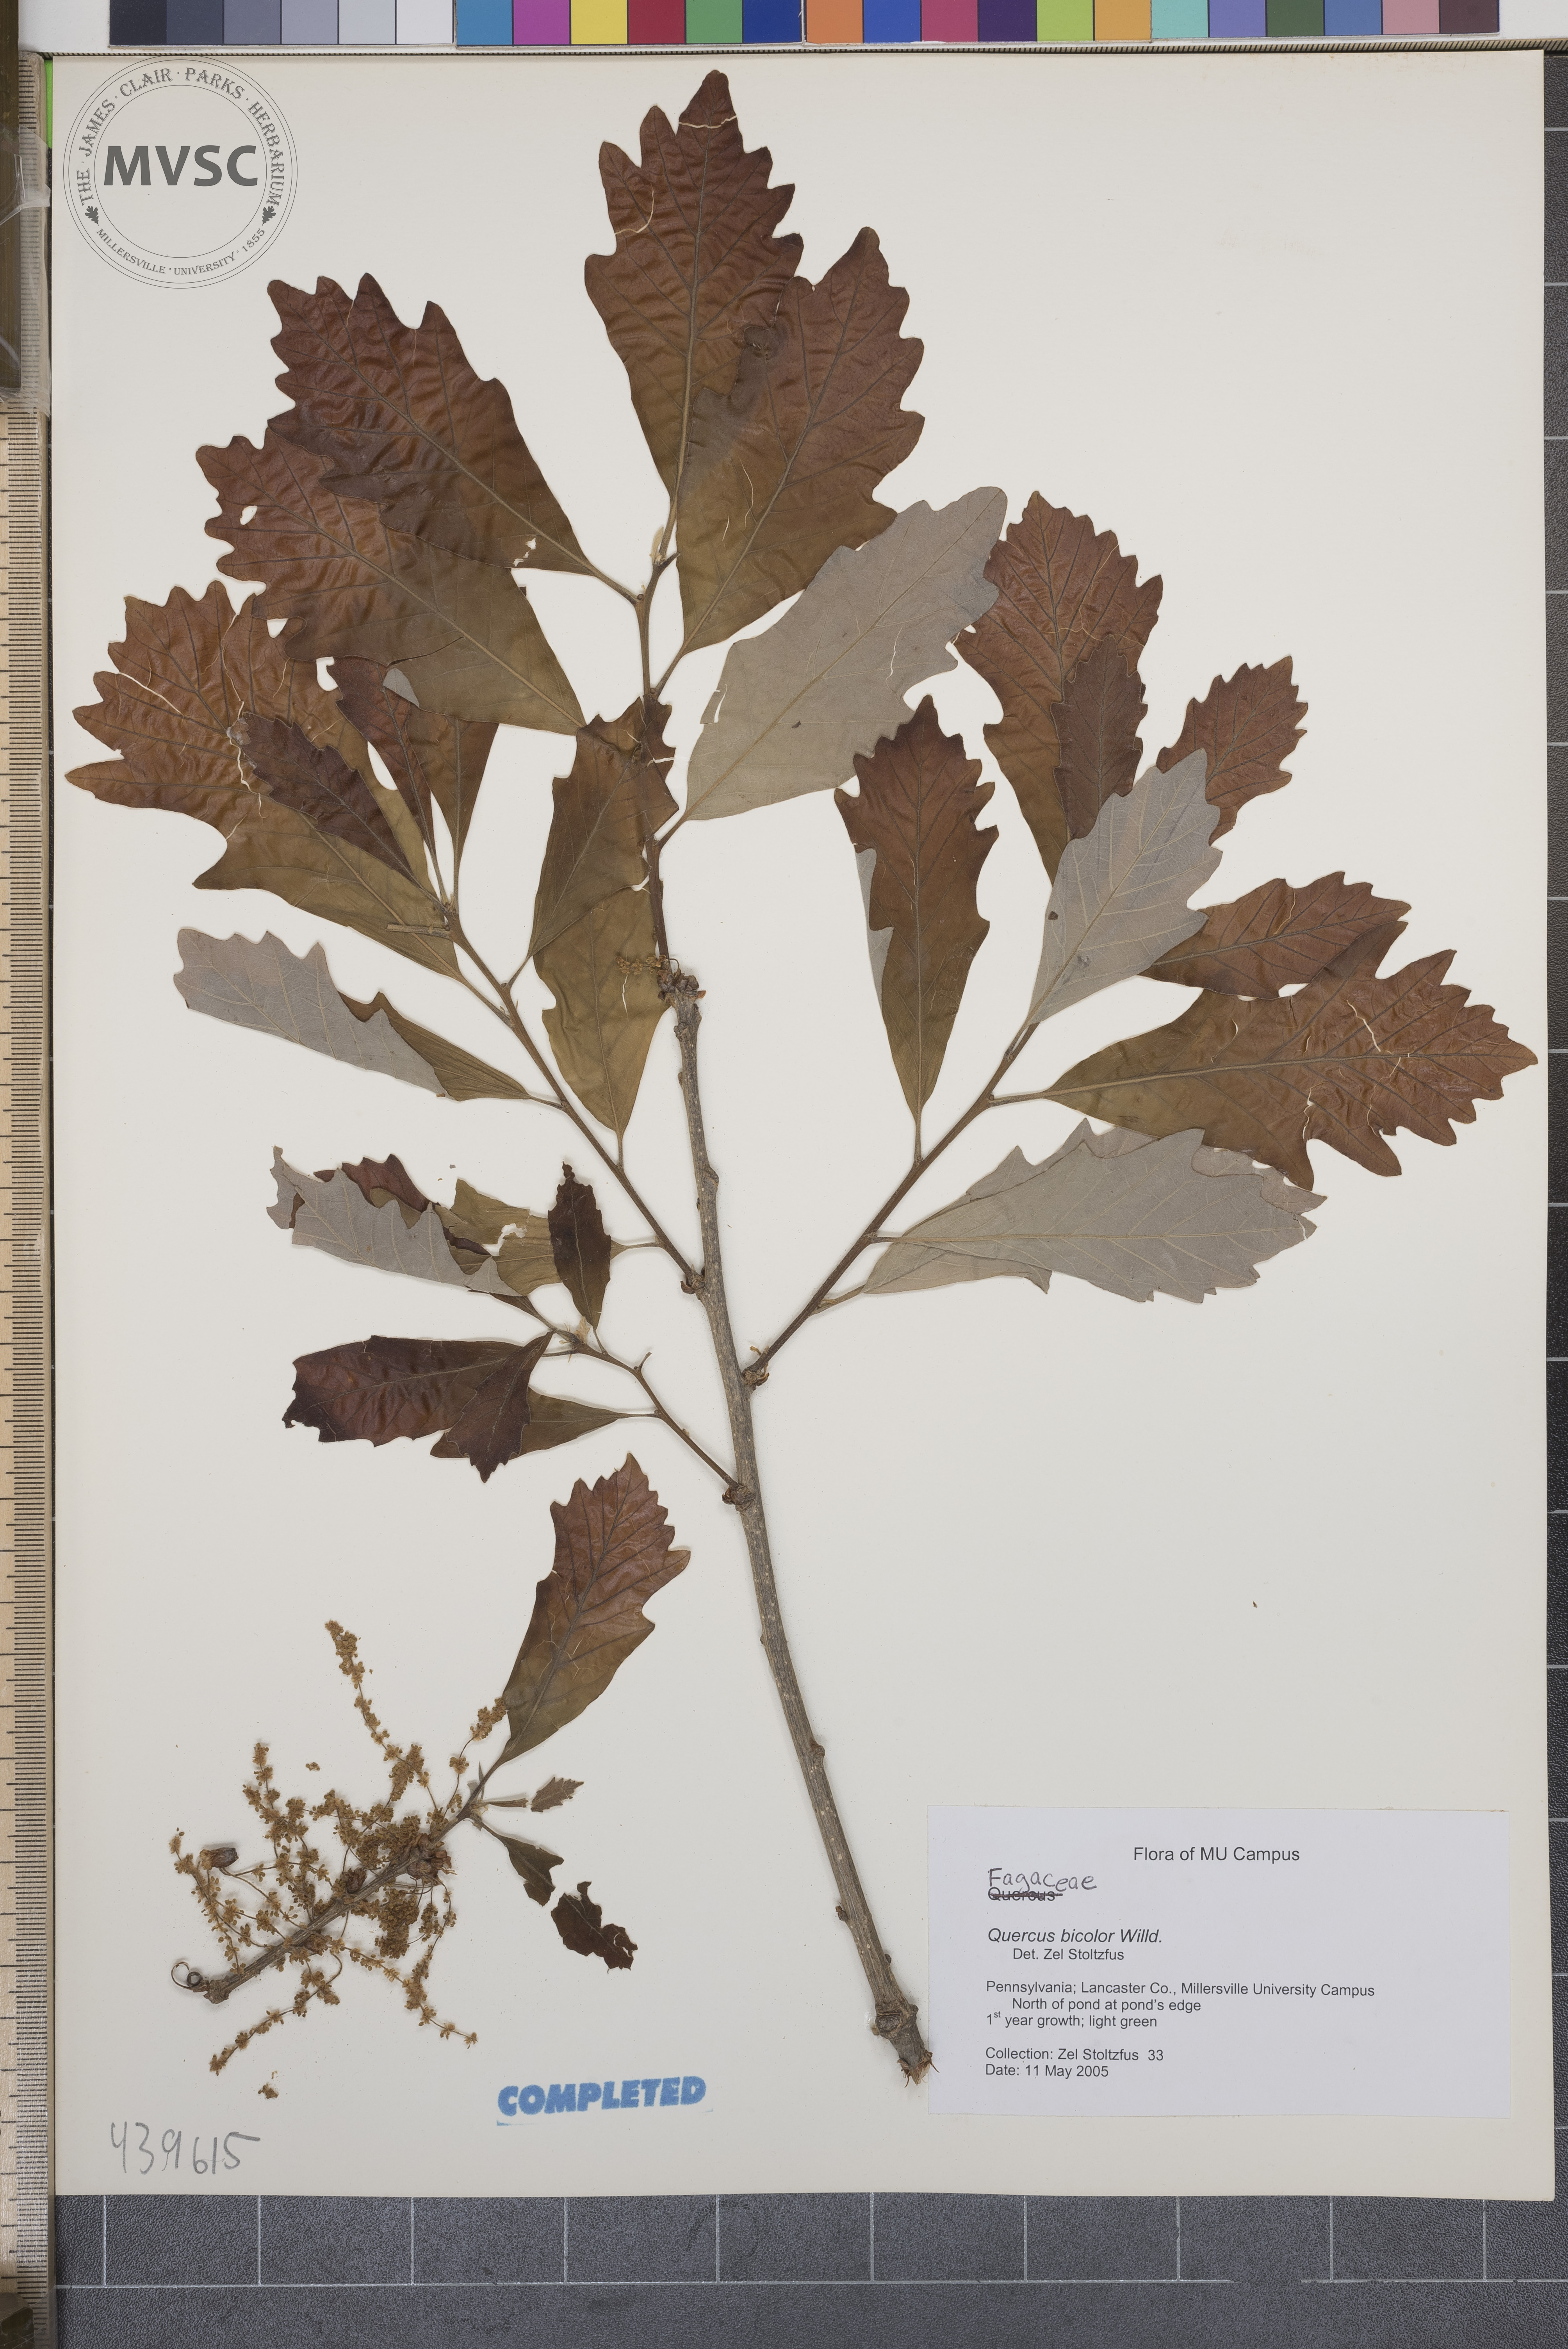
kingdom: Plantae
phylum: Tracheophyta
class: Magnoliopsida
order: Fagales
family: Fagaceae
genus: Quercus
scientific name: Quercus bicolor
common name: Swamp white oak
